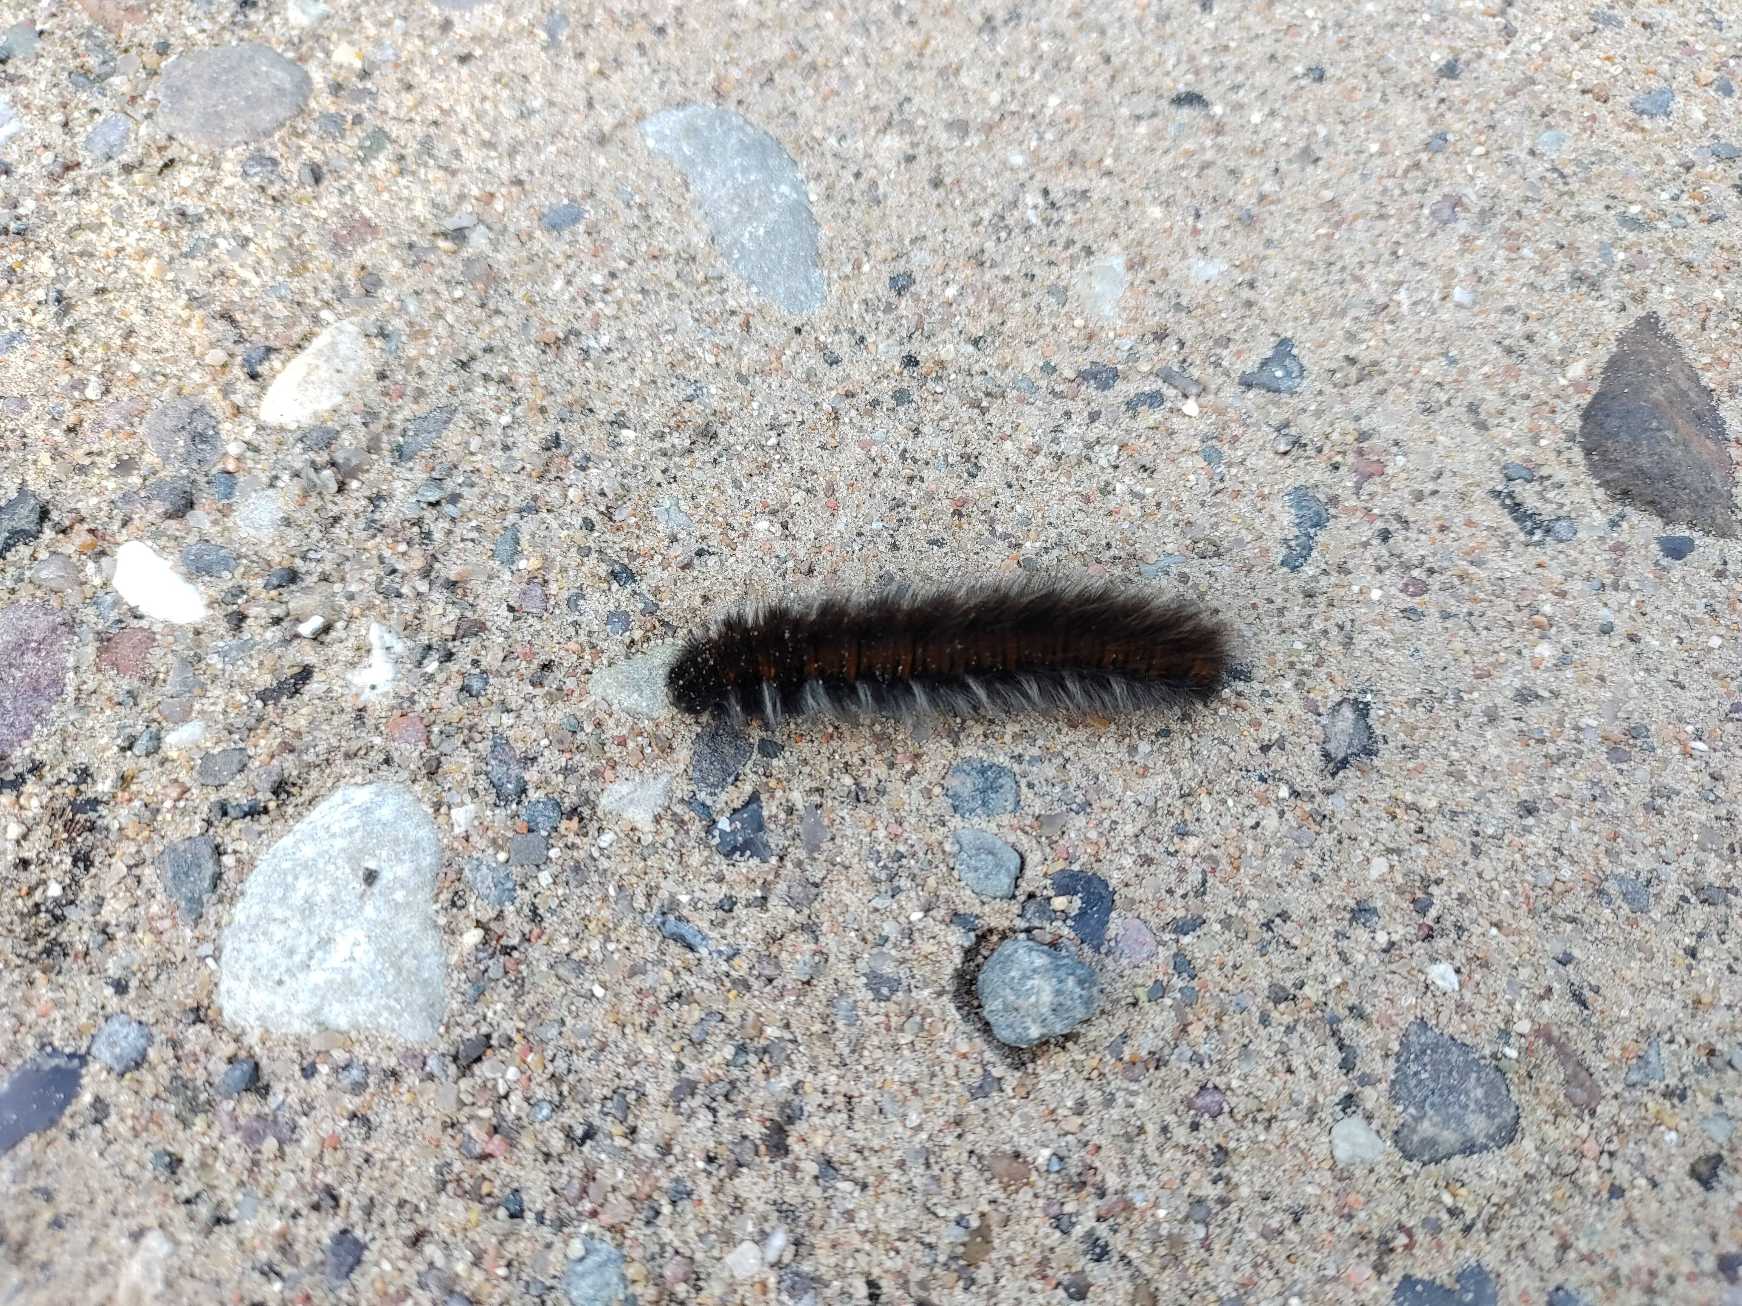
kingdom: Animalia
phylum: Arthropoda
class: Insecta
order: Lepidoptera
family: Lasiocampidae
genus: Macrothylacia
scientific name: Macrothylacia rubi
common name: Brombærspinder
